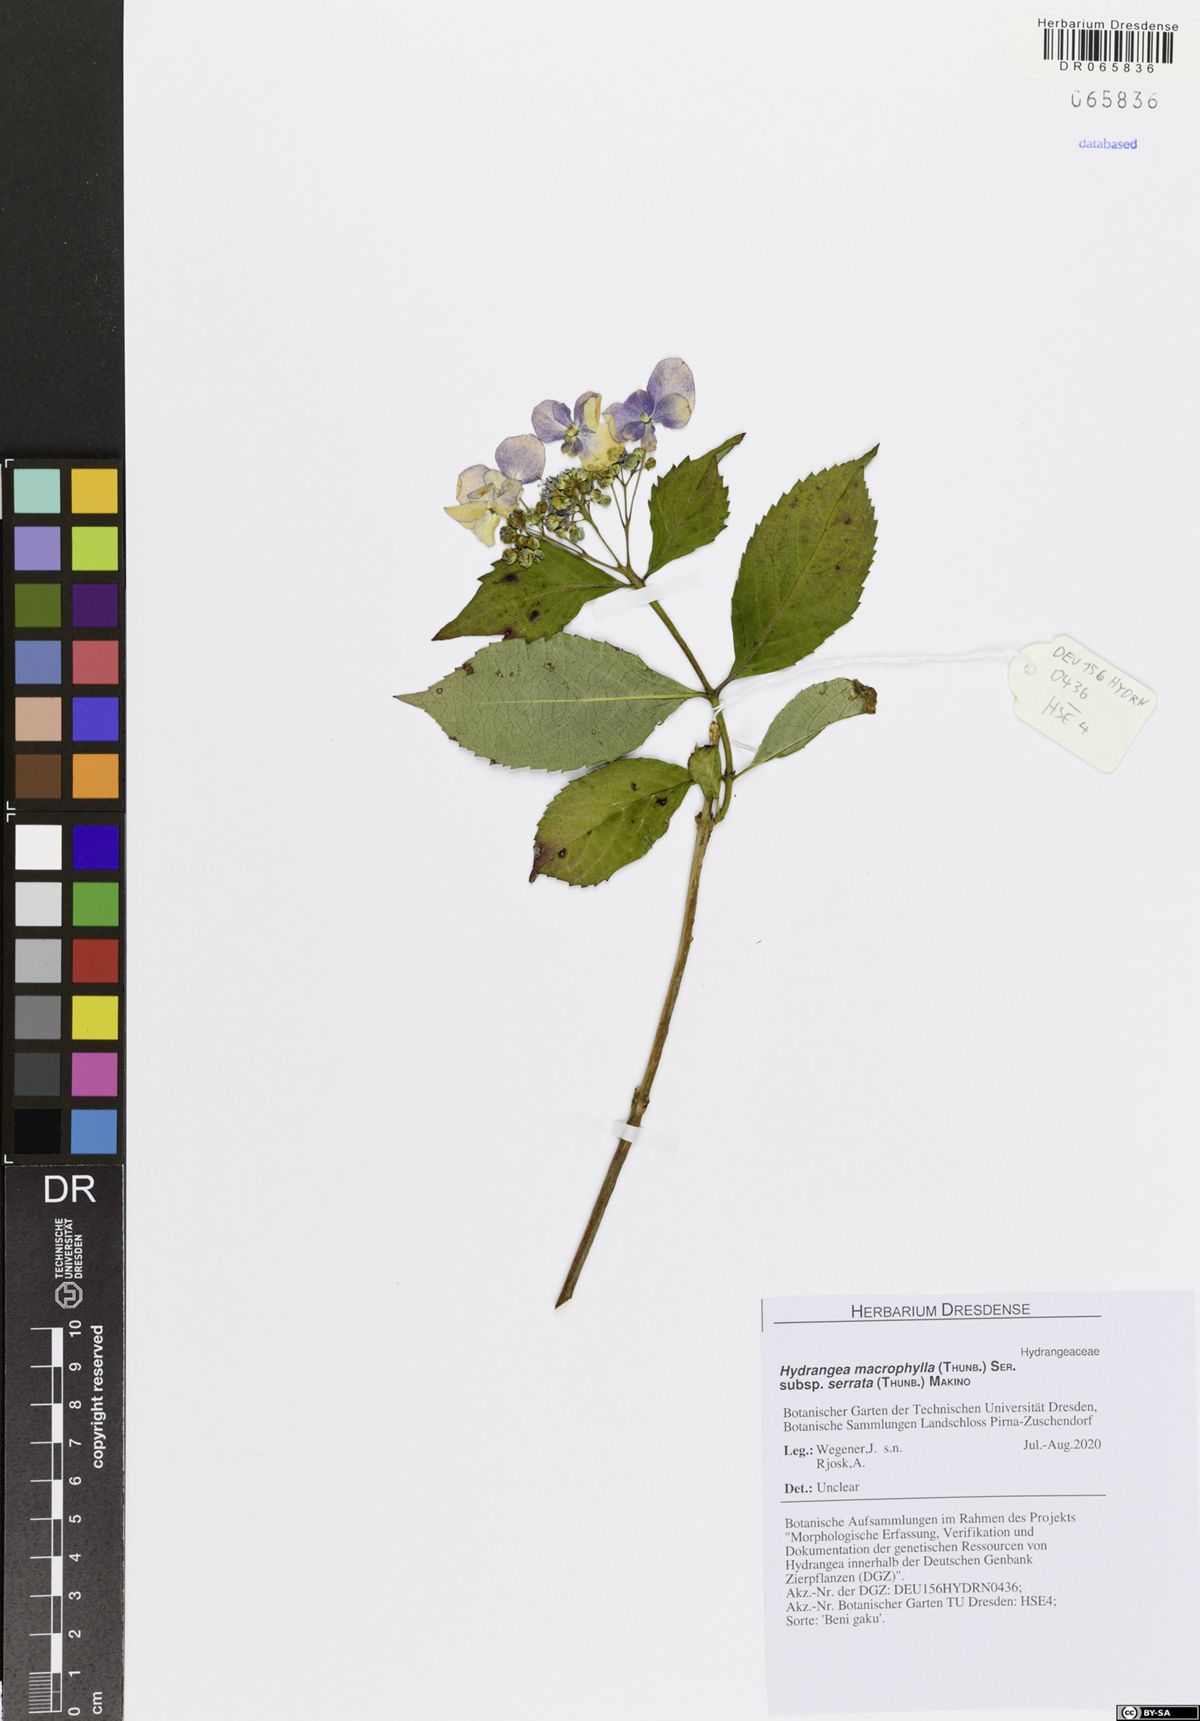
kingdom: Plantae
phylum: Tracheophyta
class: Magnoliopsida
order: Cornales
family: Hydrangeaceae
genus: Hydrangea
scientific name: Hydrangea serrata
